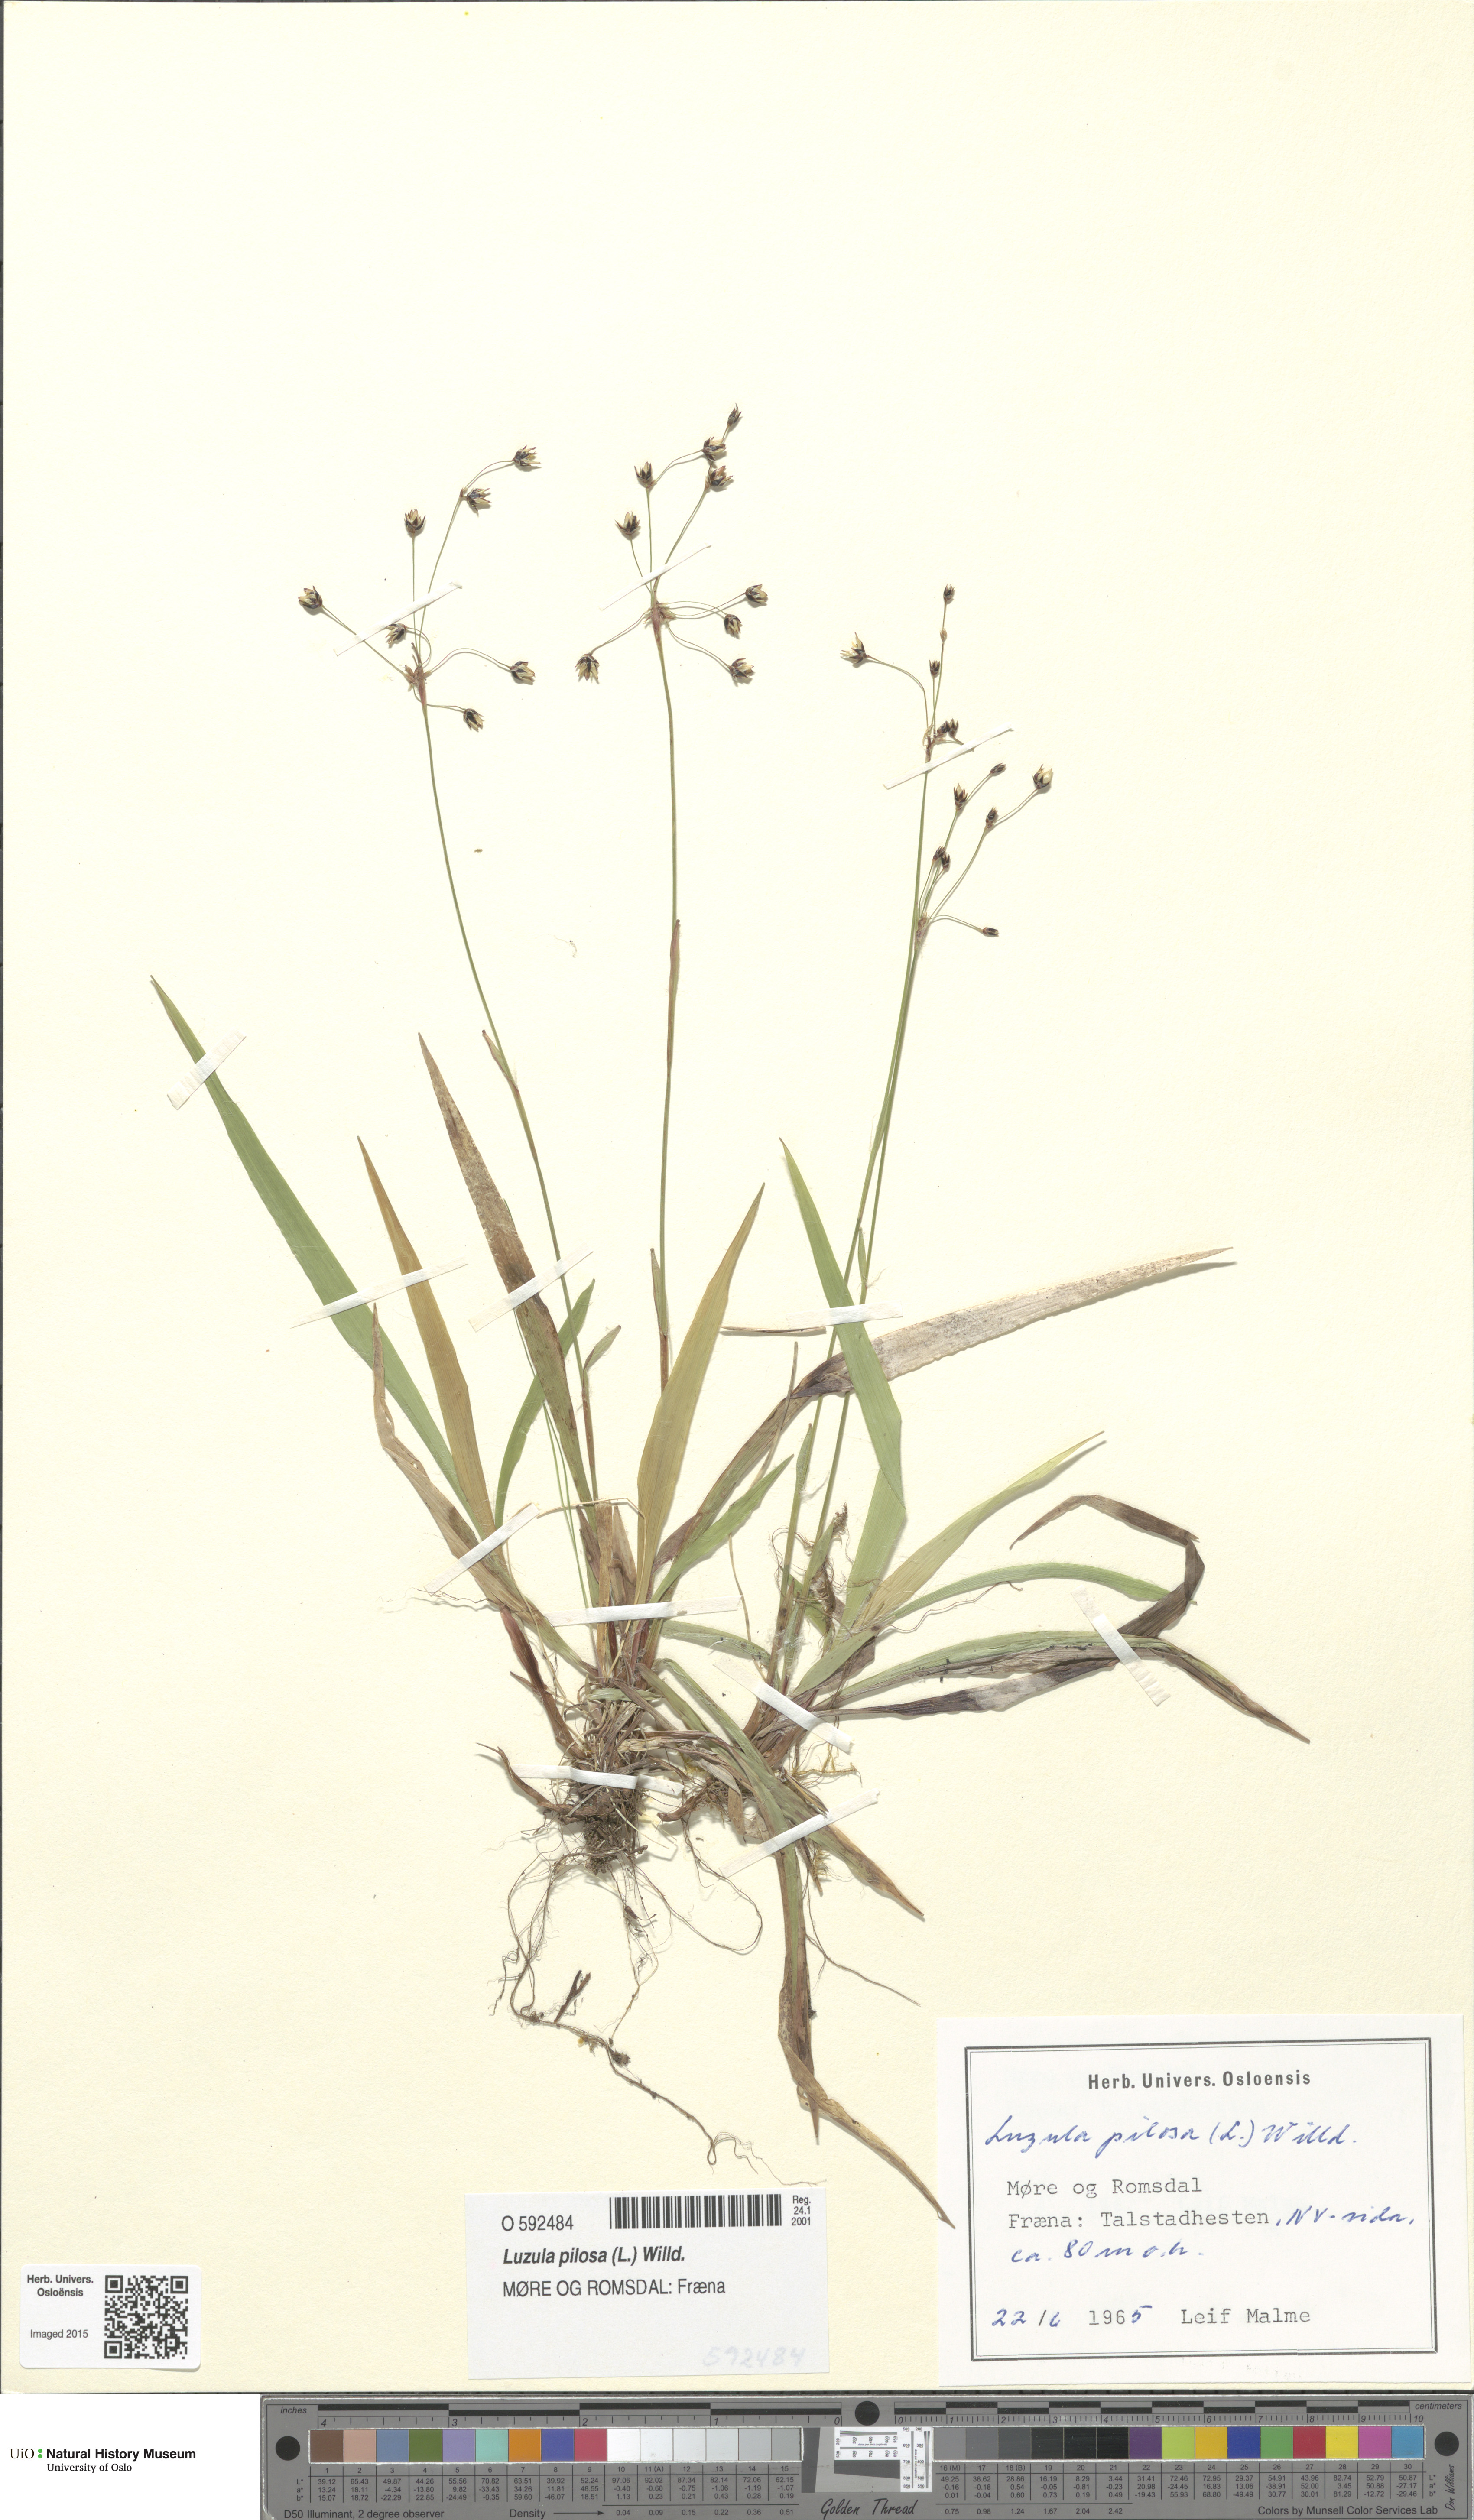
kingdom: Plantae
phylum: Tracheophyta
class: Liliopsida
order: Poales
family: Juncaceae
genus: Luzula
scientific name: Luzula pilosa
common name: Hairy wood-rush
